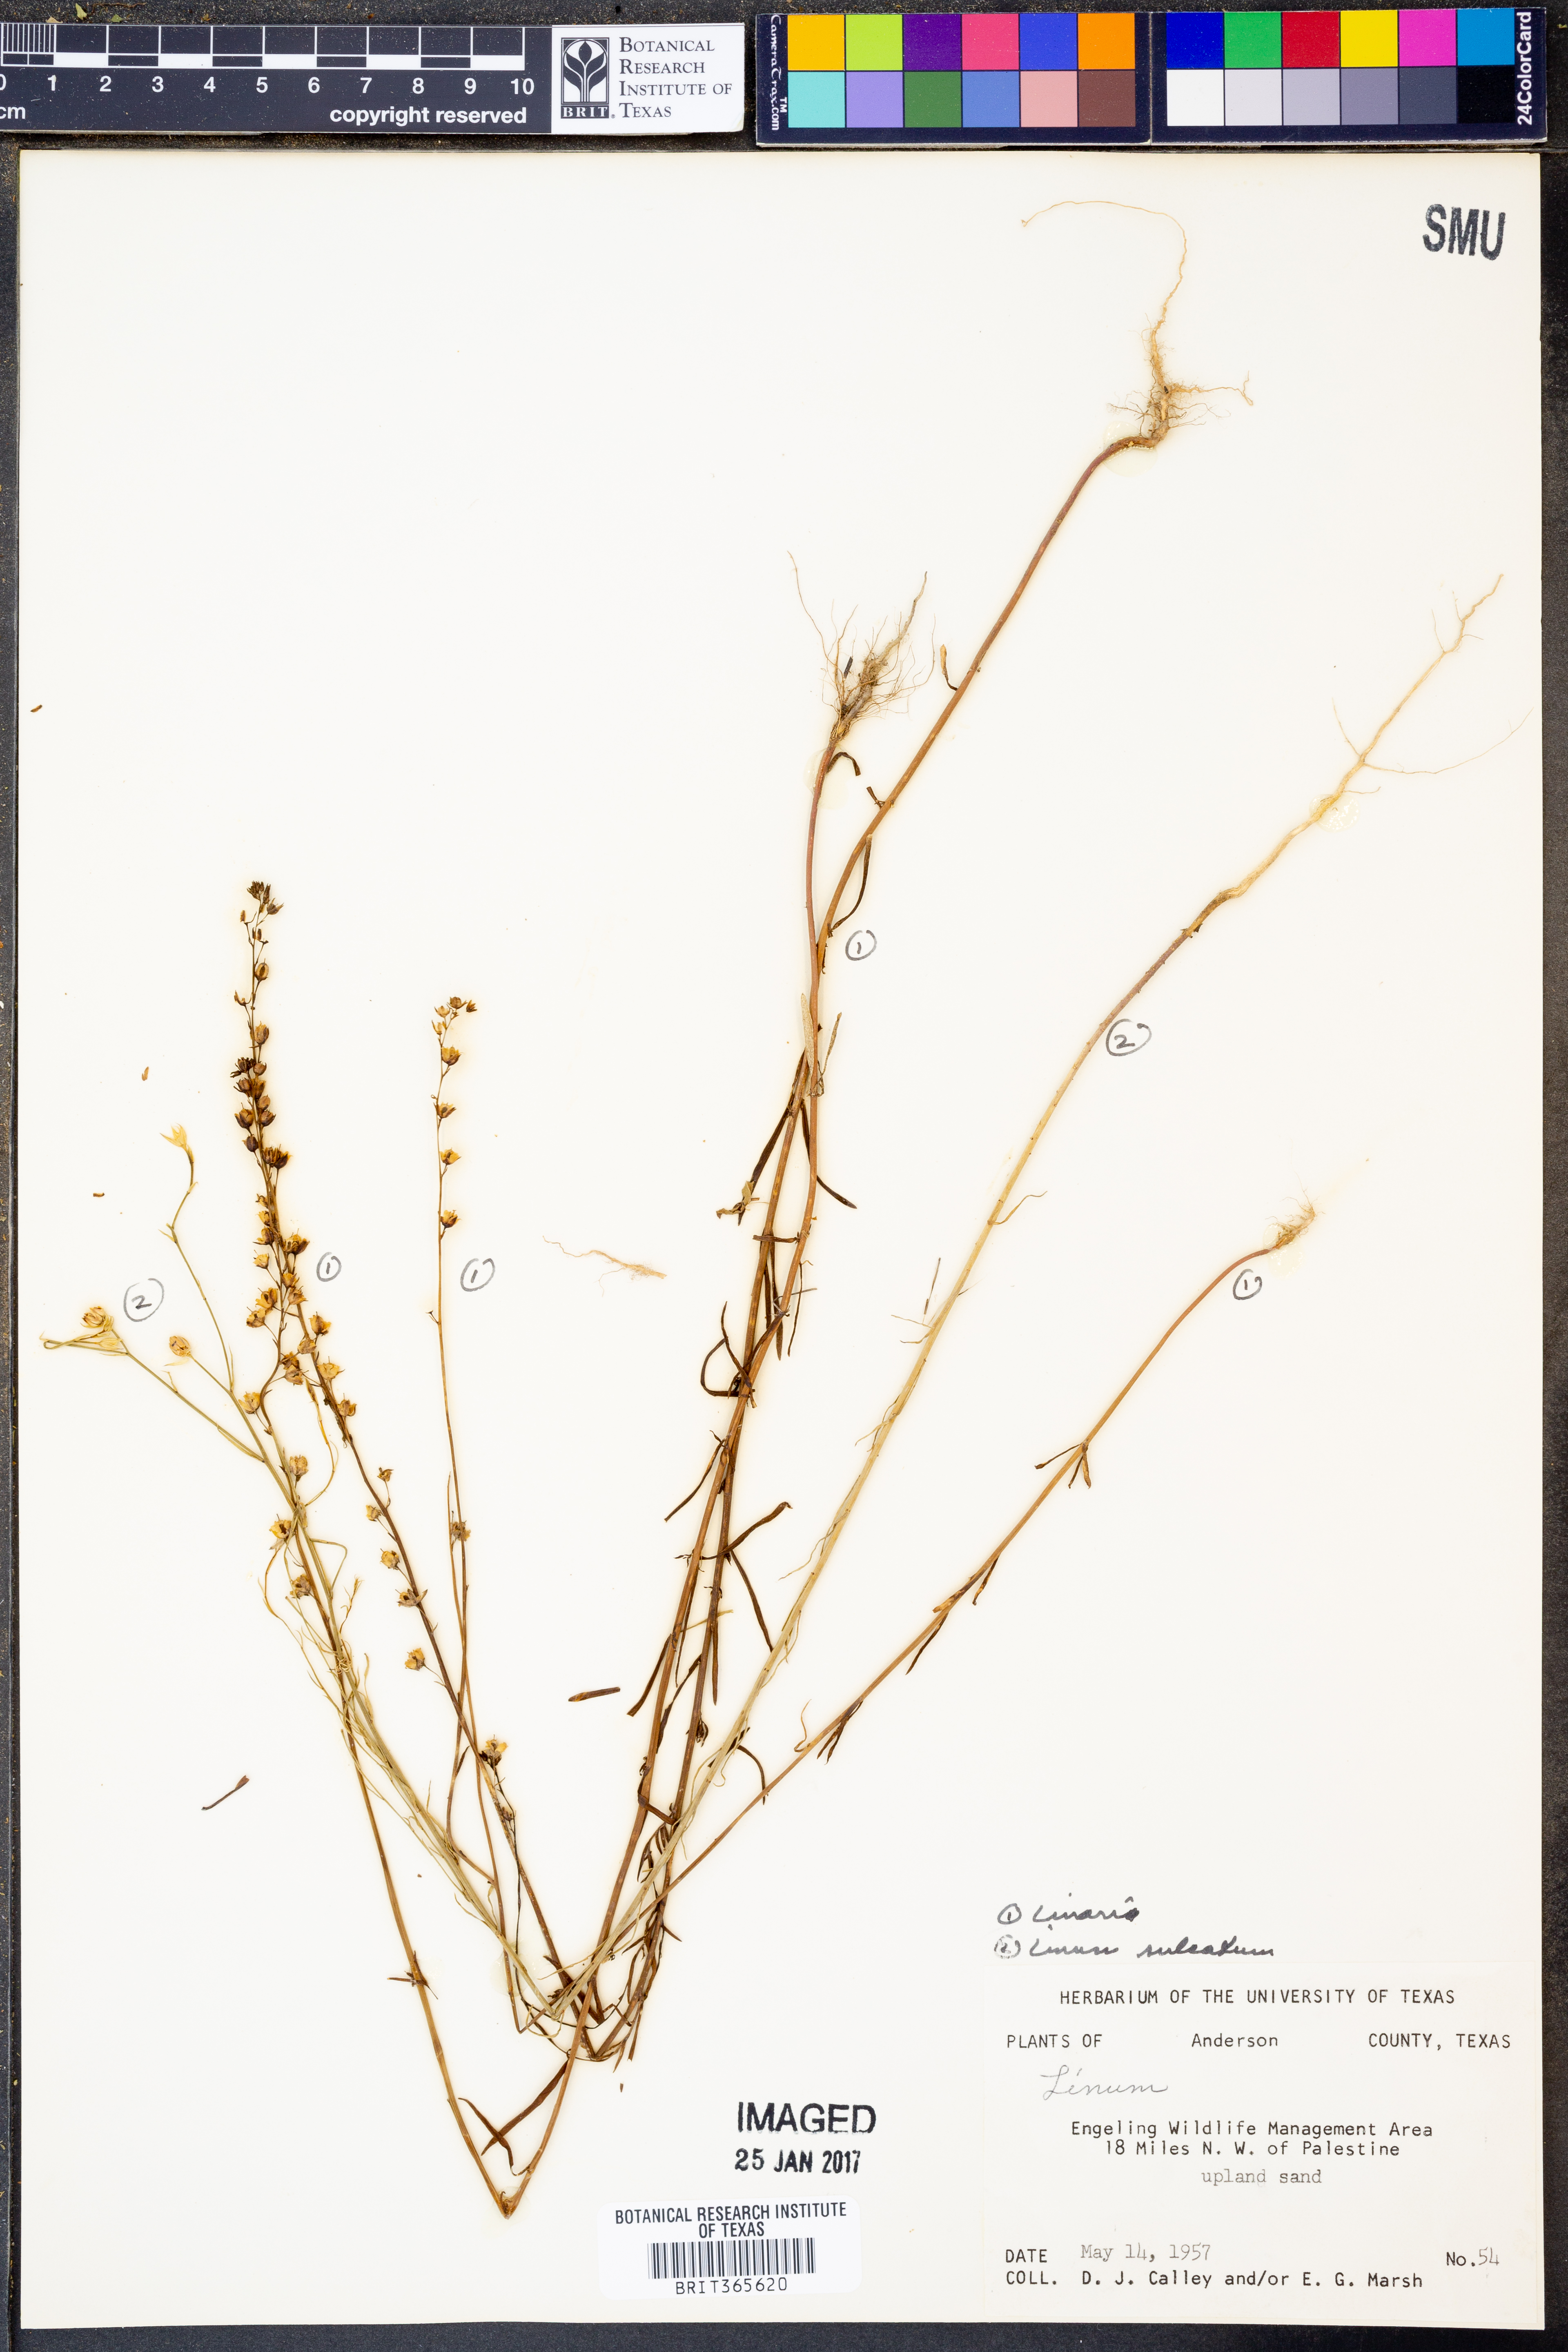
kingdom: Plantae
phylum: Tracheophyta
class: Magnoliopsida
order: Lamiales
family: Plantaginaceae
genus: Linaria
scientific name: Linaria
